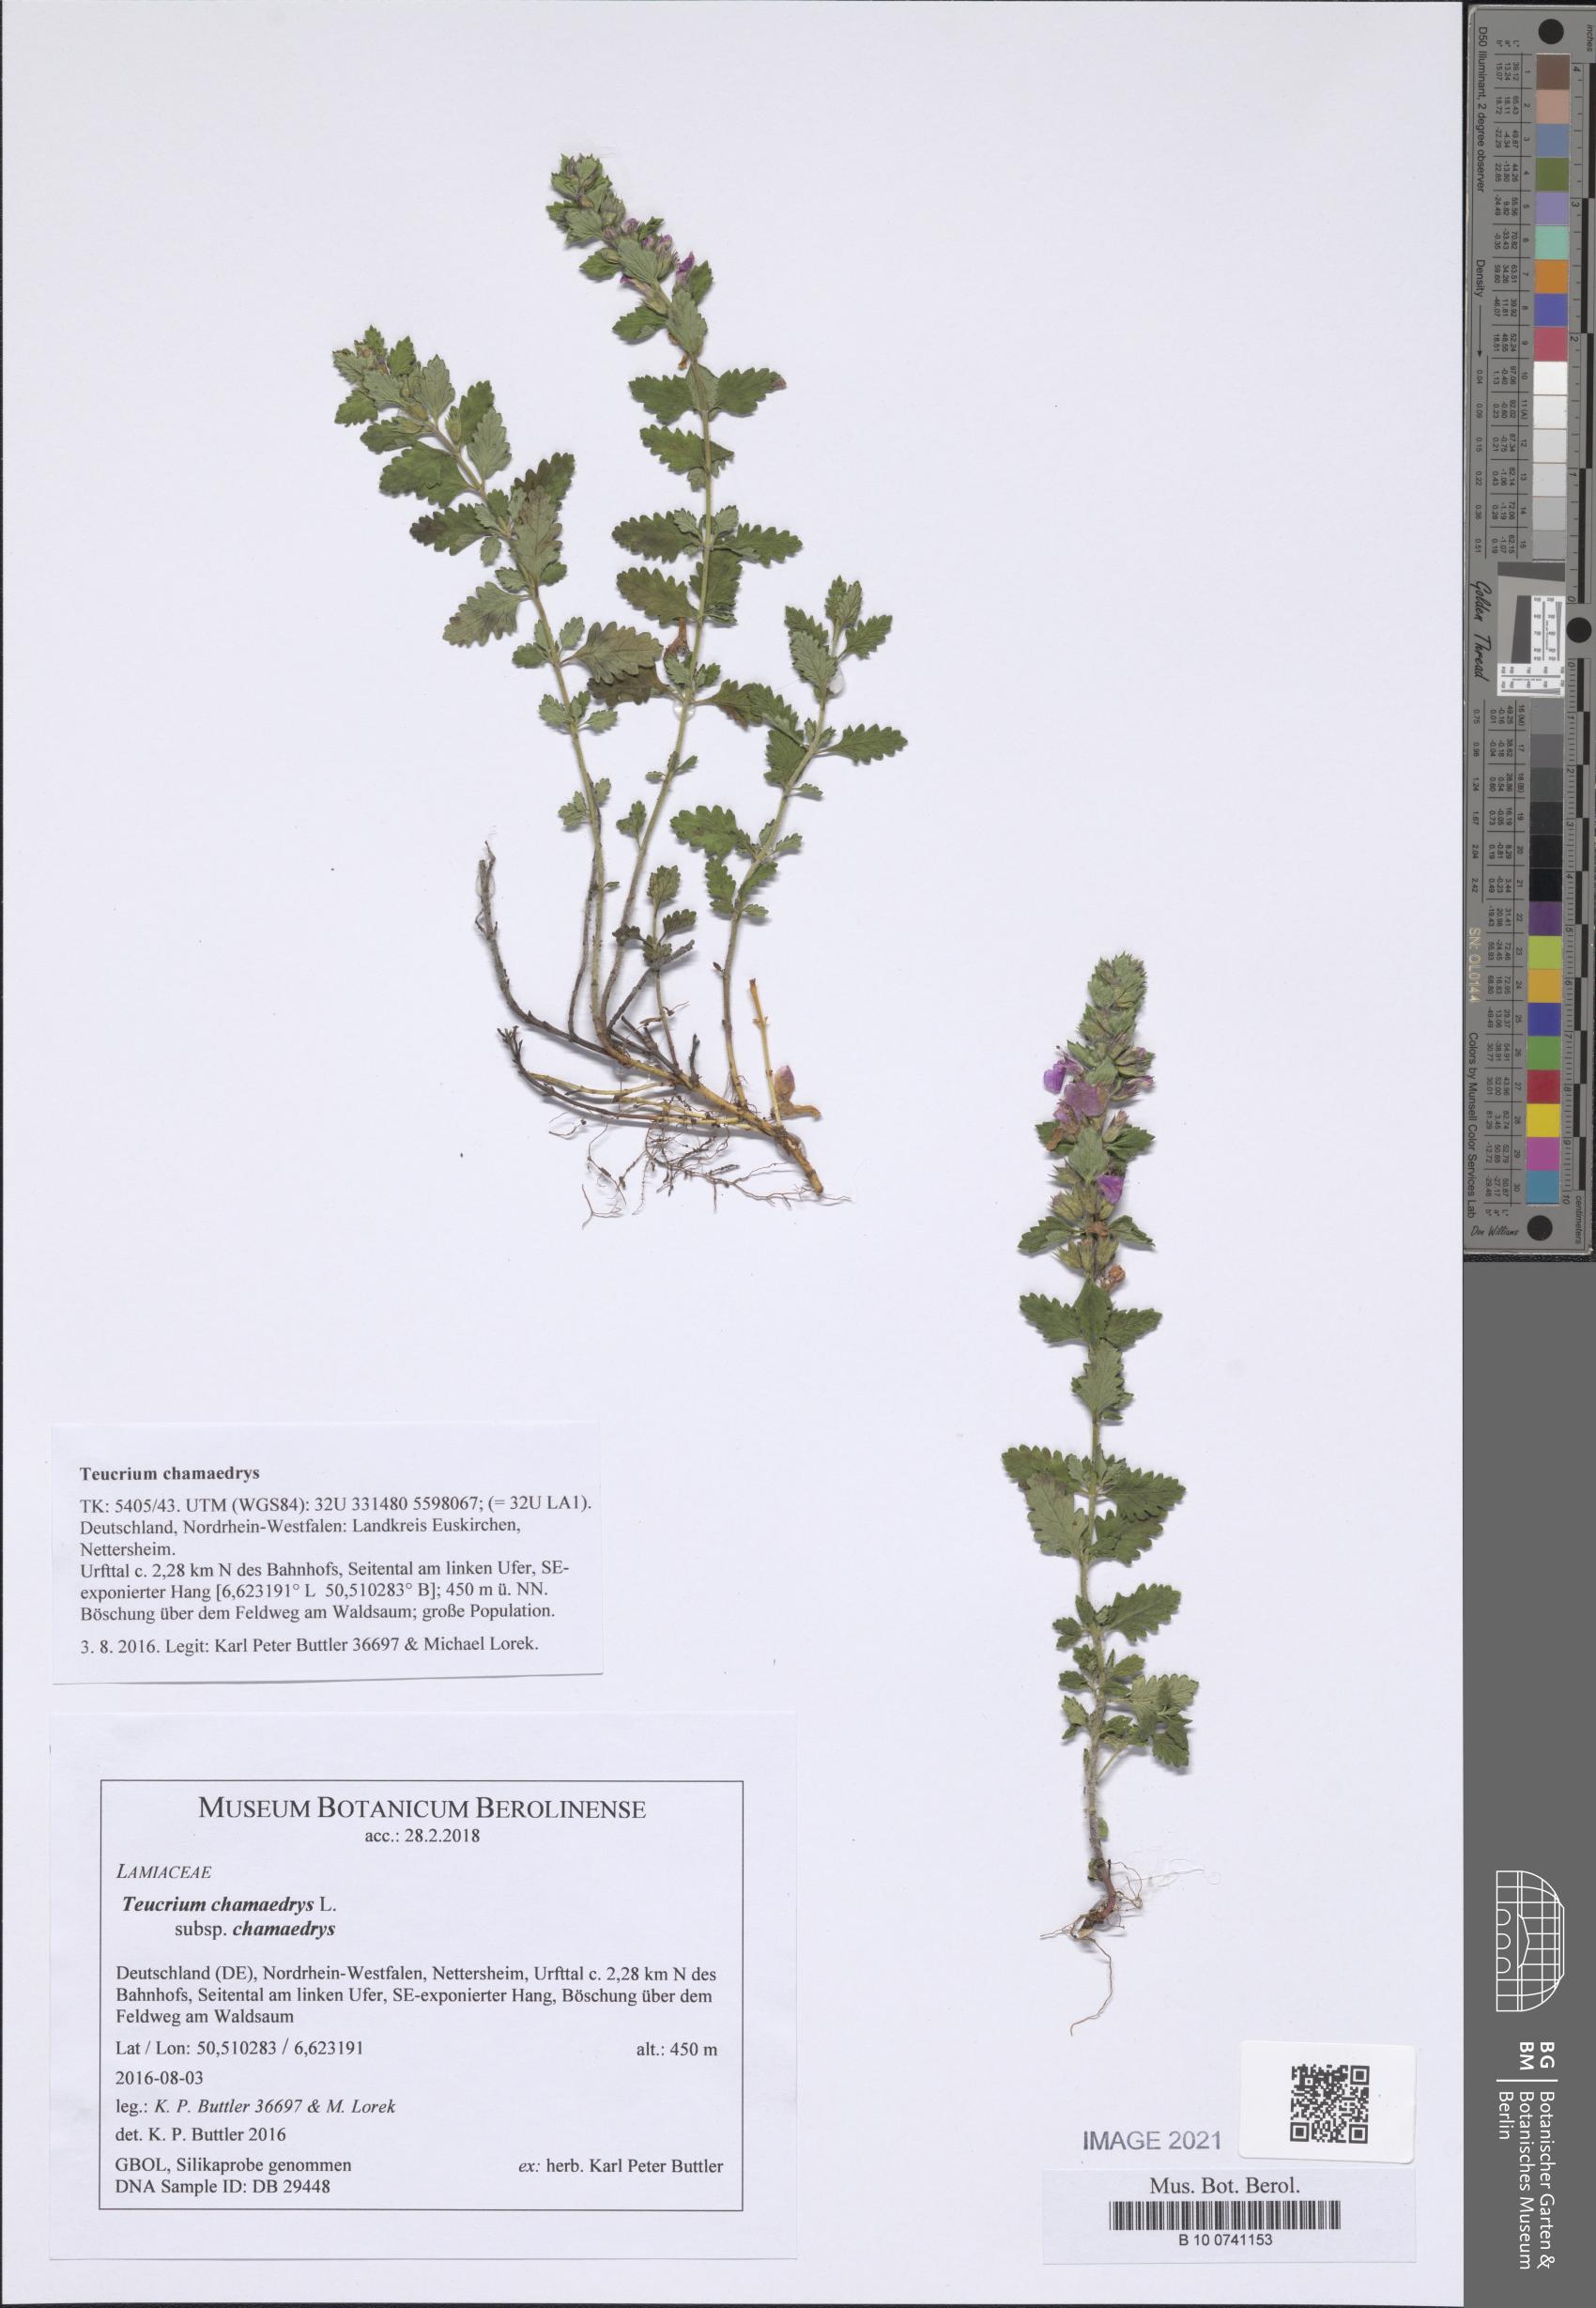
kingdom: Plantae
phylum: Tracheophyta
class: Magnoliopsida
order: Lamiales
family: Lamiaceae
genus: Teucrium
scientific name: Teucrium chamaedrys
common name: Wall germander
